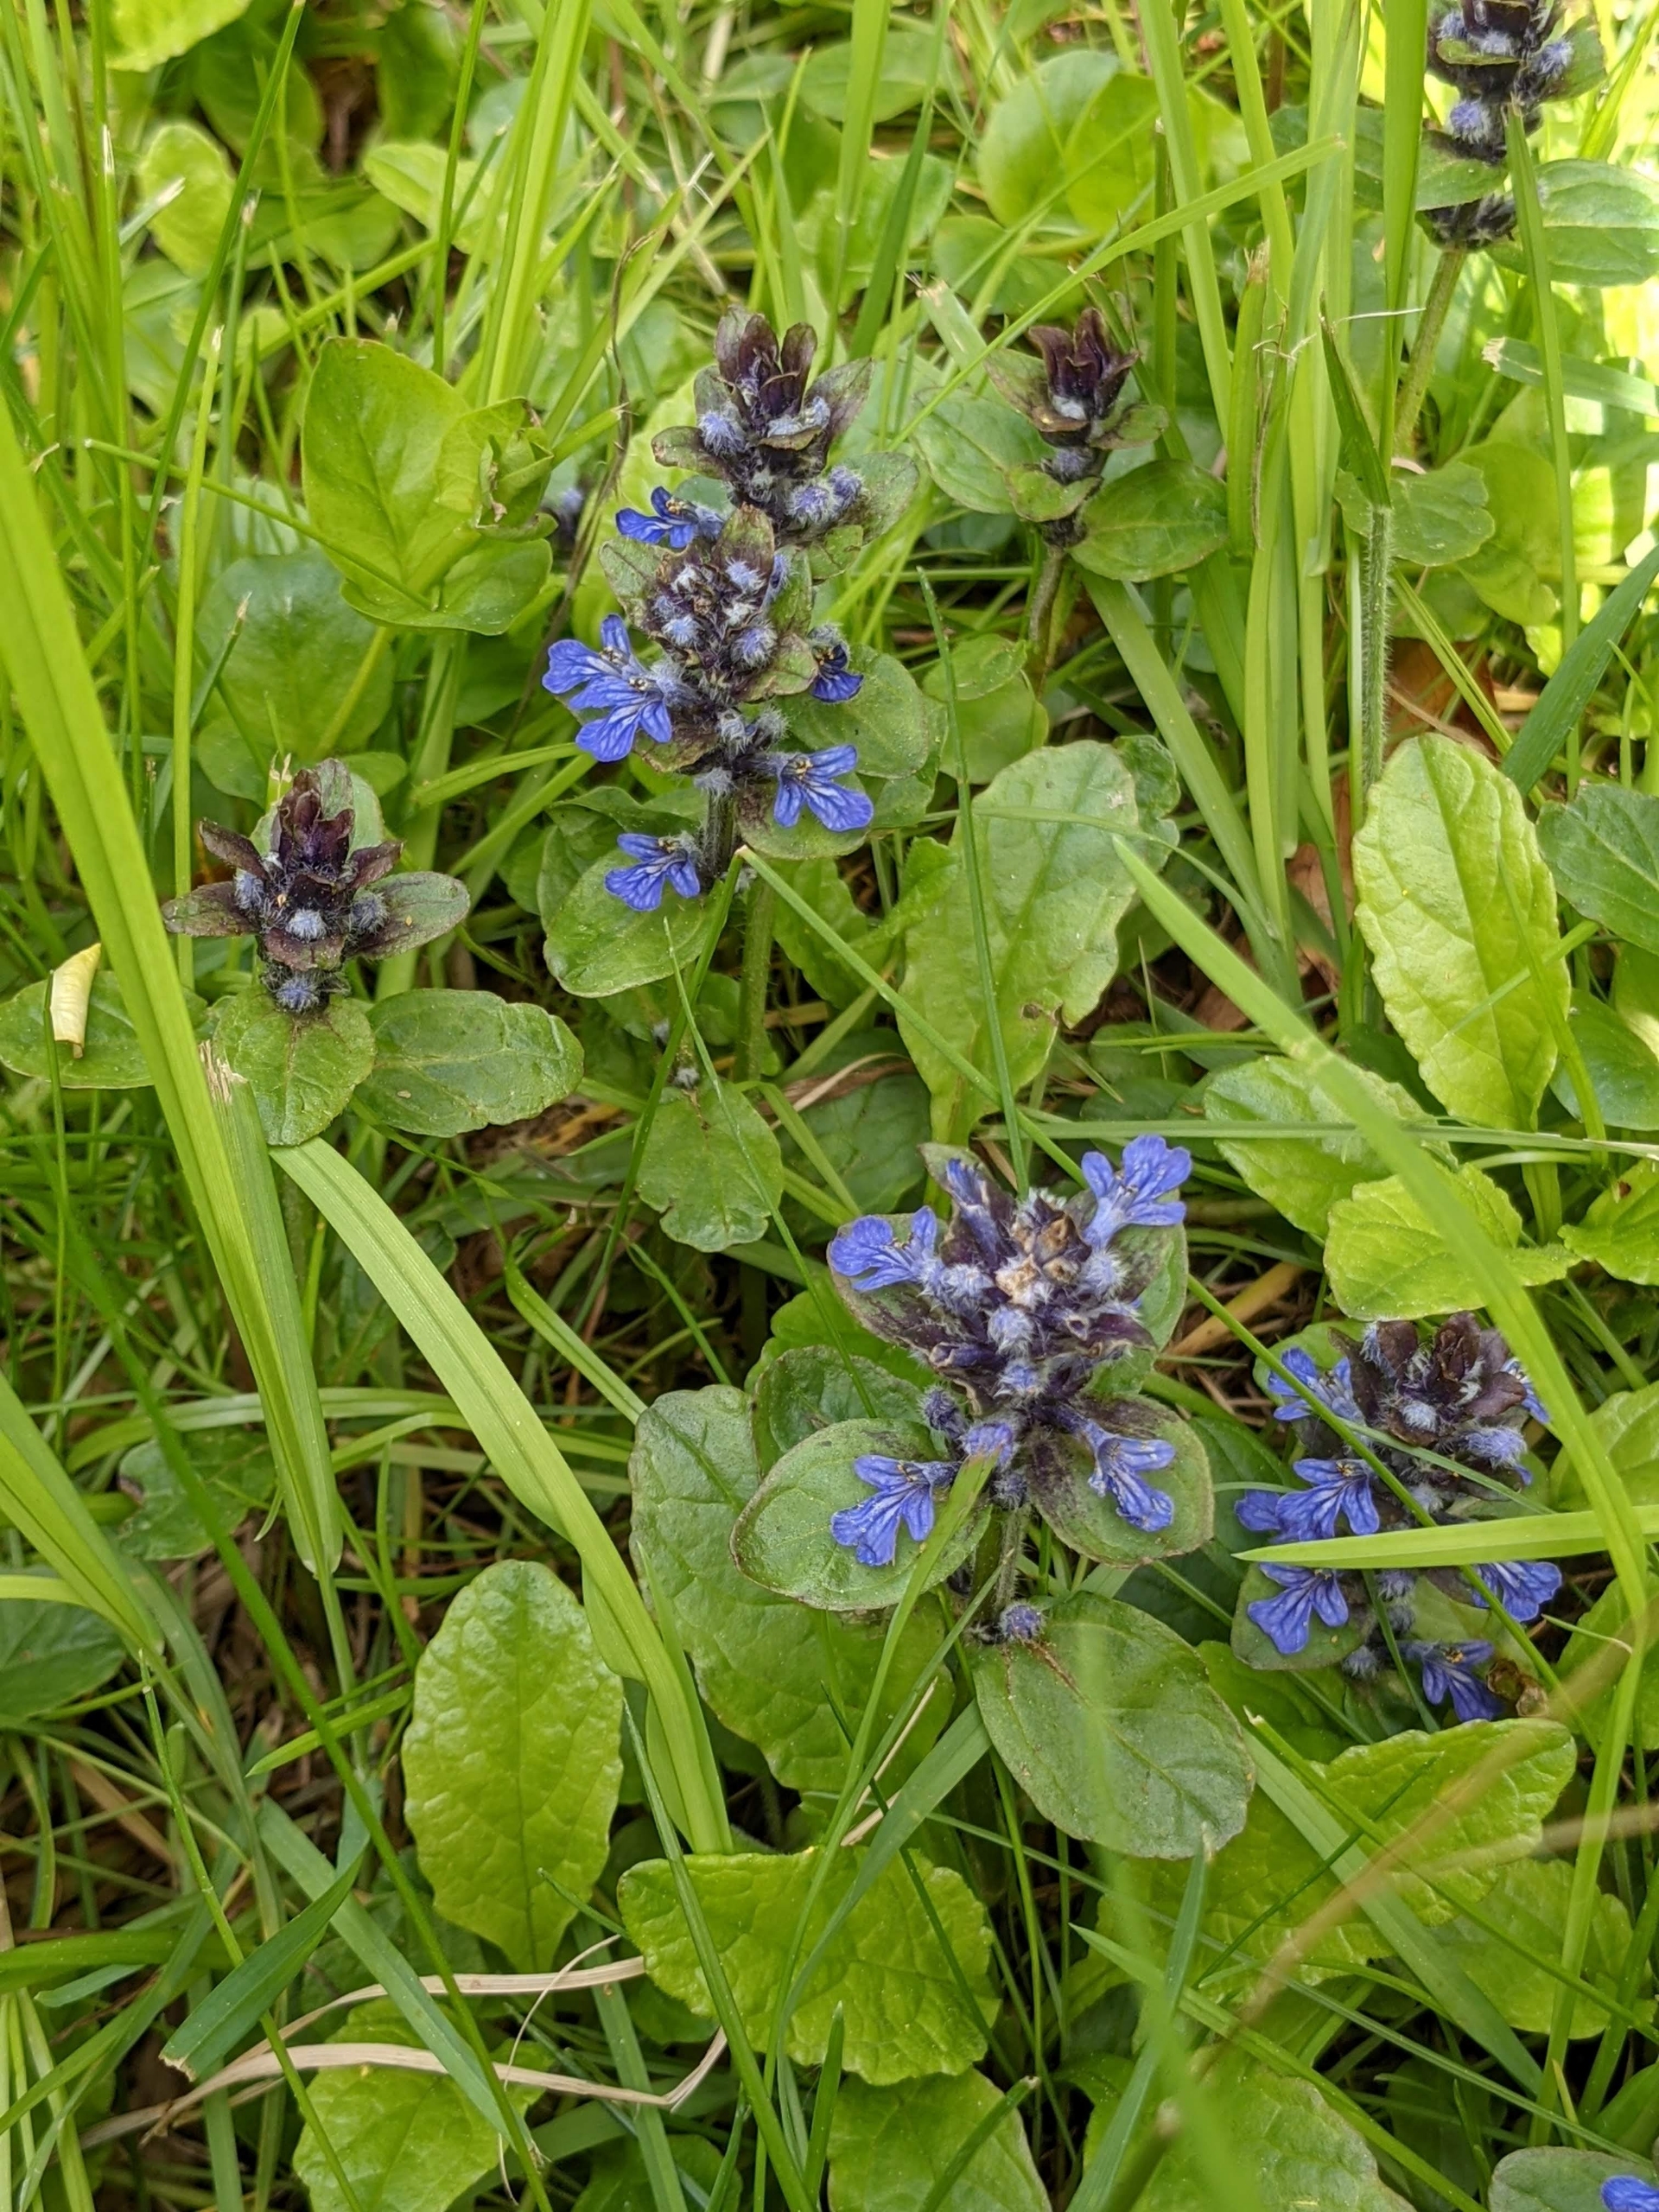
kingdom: Plantae
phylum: Tracheophyta
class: Magnoliopsida
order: Lamiales
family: Lamiaceae
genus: Ajuga
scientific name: Ajuga reptans
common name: Krybende læbeløs
